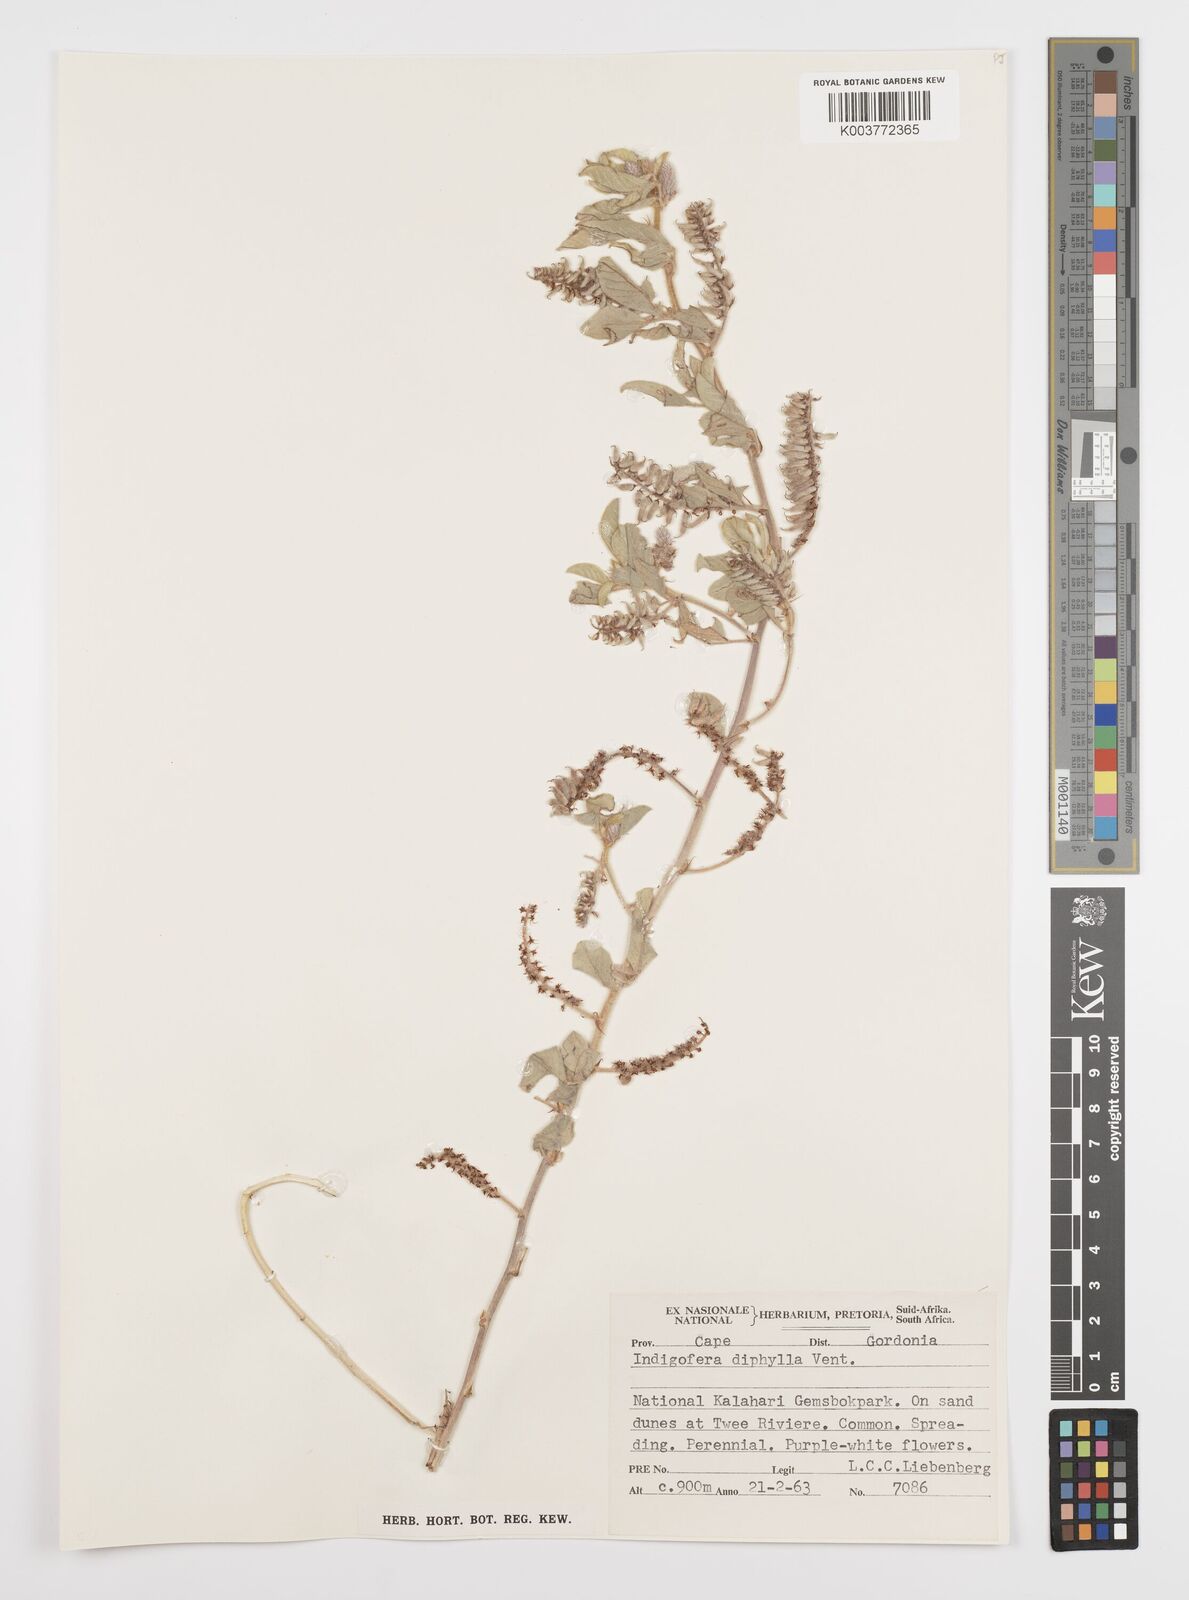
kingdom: Plantae
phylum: Tracheophyta
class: Magnoliopsida
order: Fabales
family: Fabaceae
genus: Indigofera
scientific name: Indigofera flavicans
